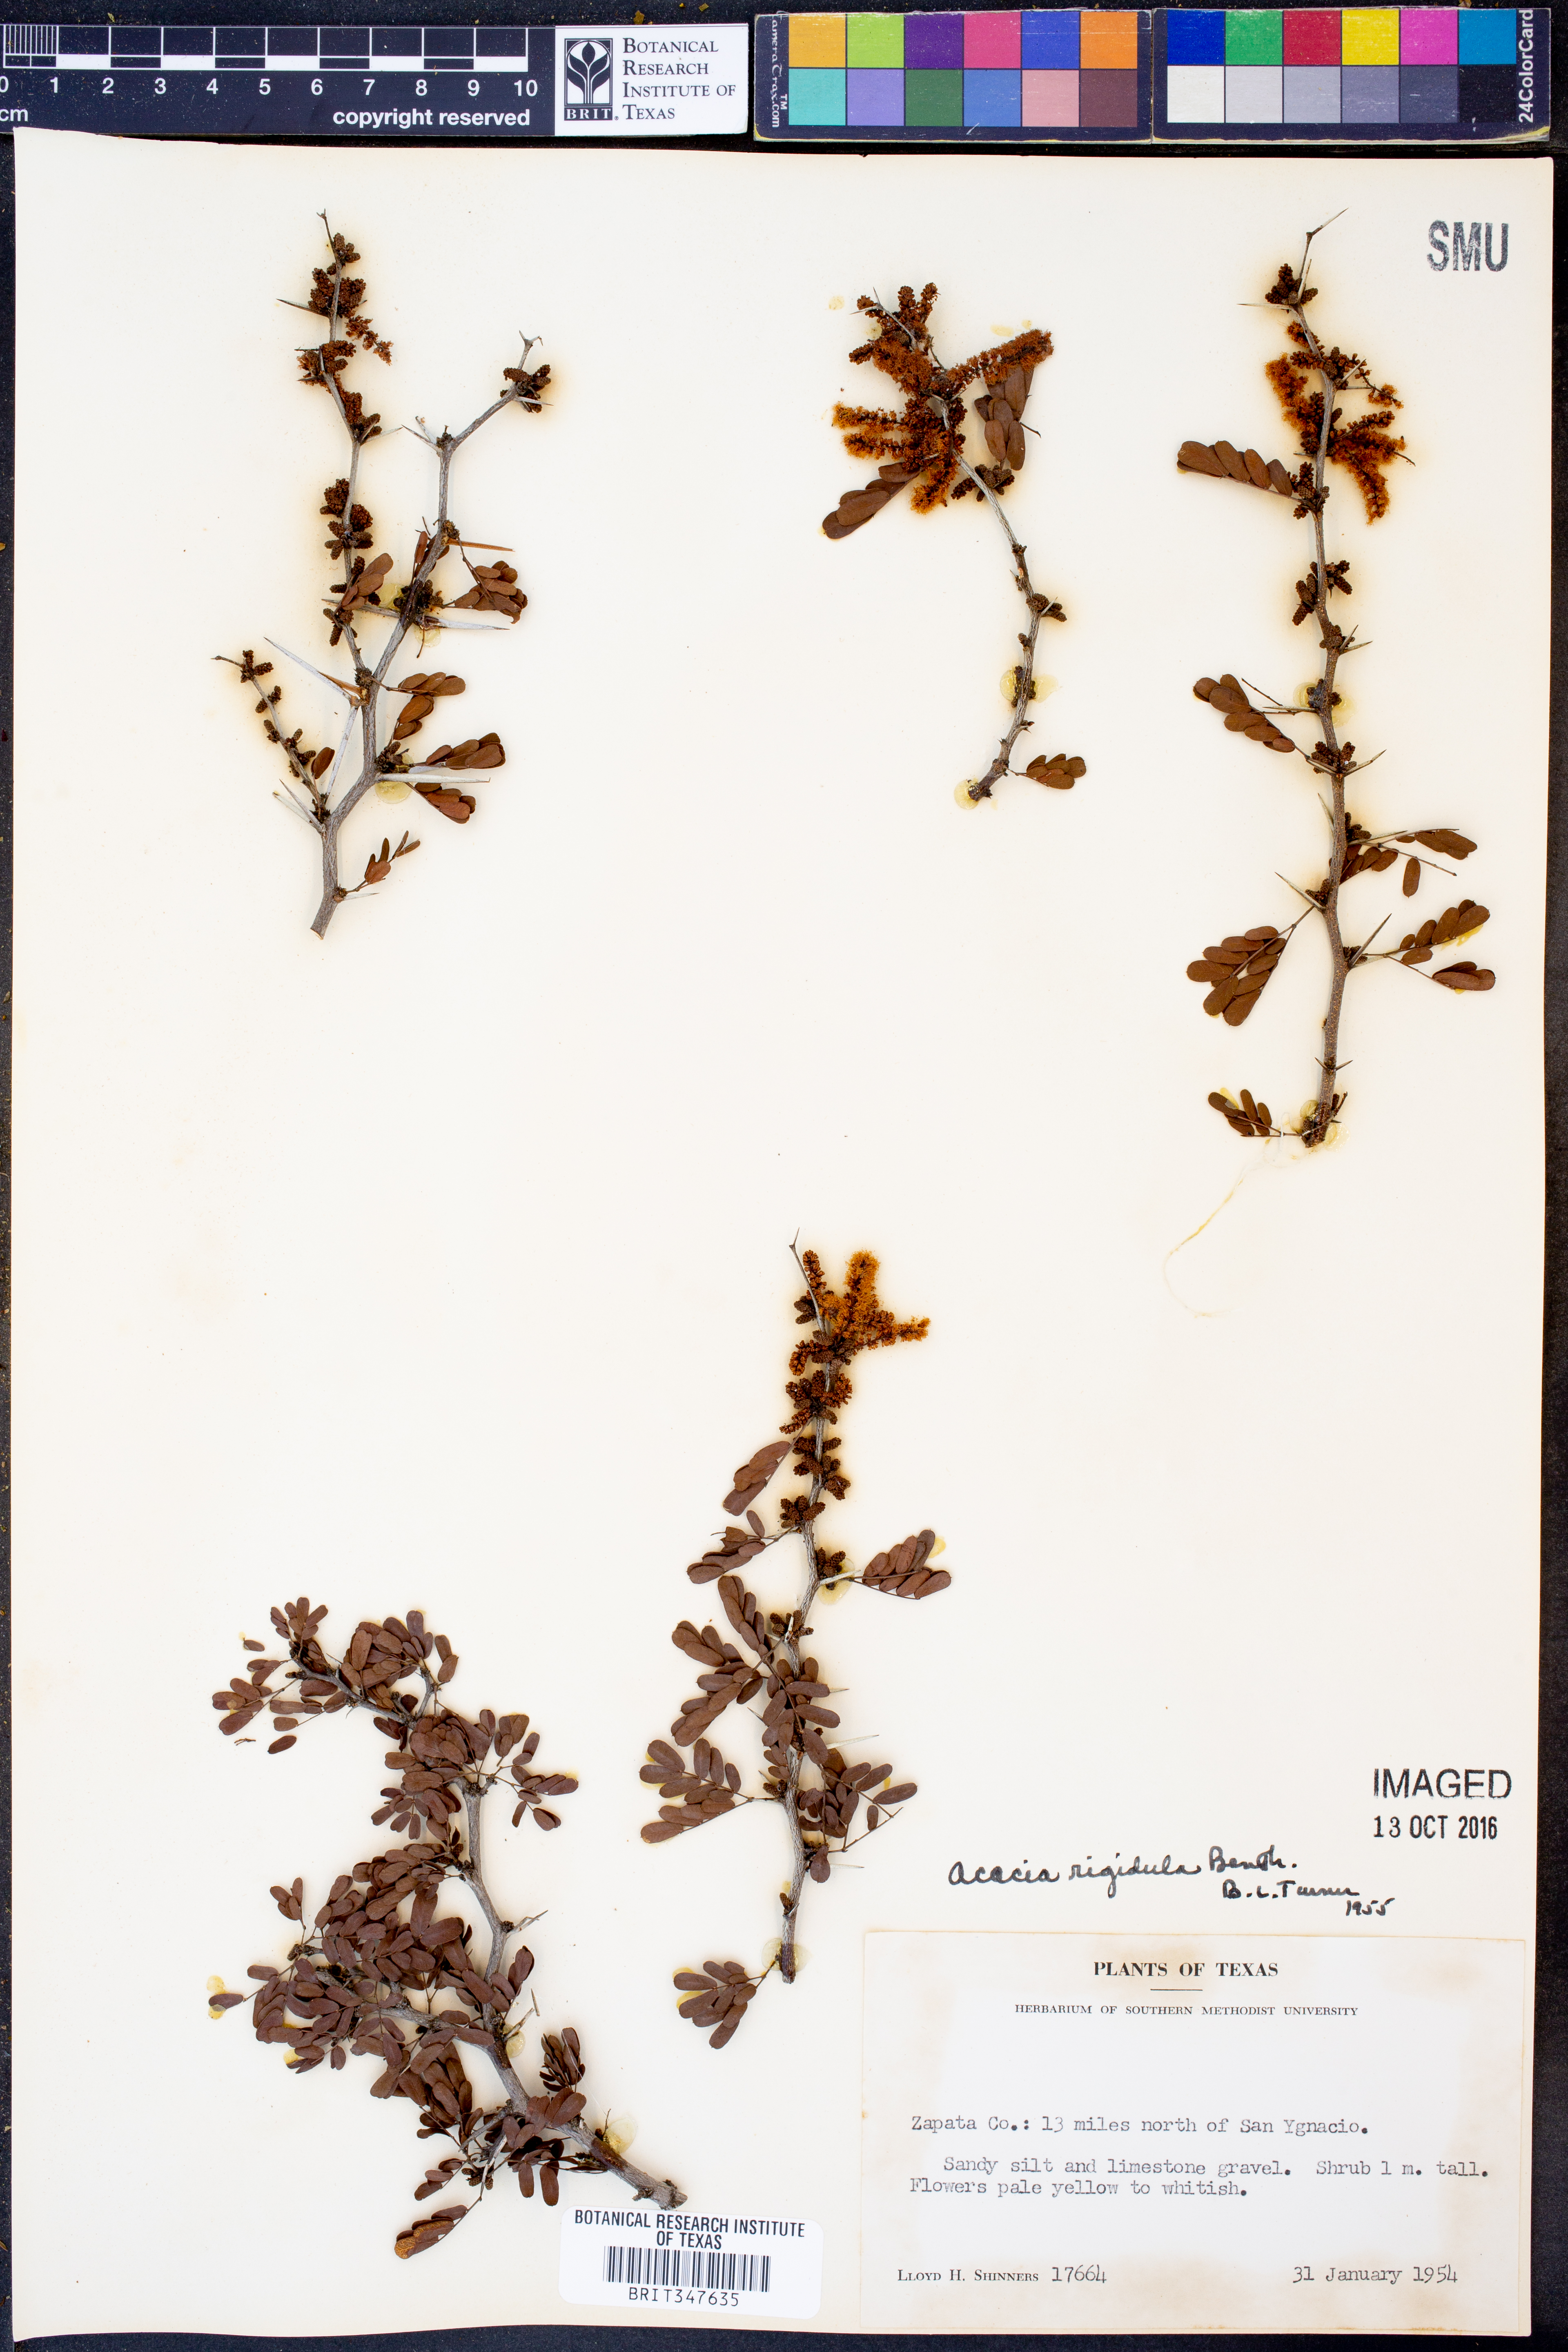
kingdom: Plantae
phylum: Tracheophyta
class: Magnoliopsida
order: Fabales
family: Fabaceae
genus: Vachellia
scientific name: Vachellia rigidula
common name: Blackbrush
